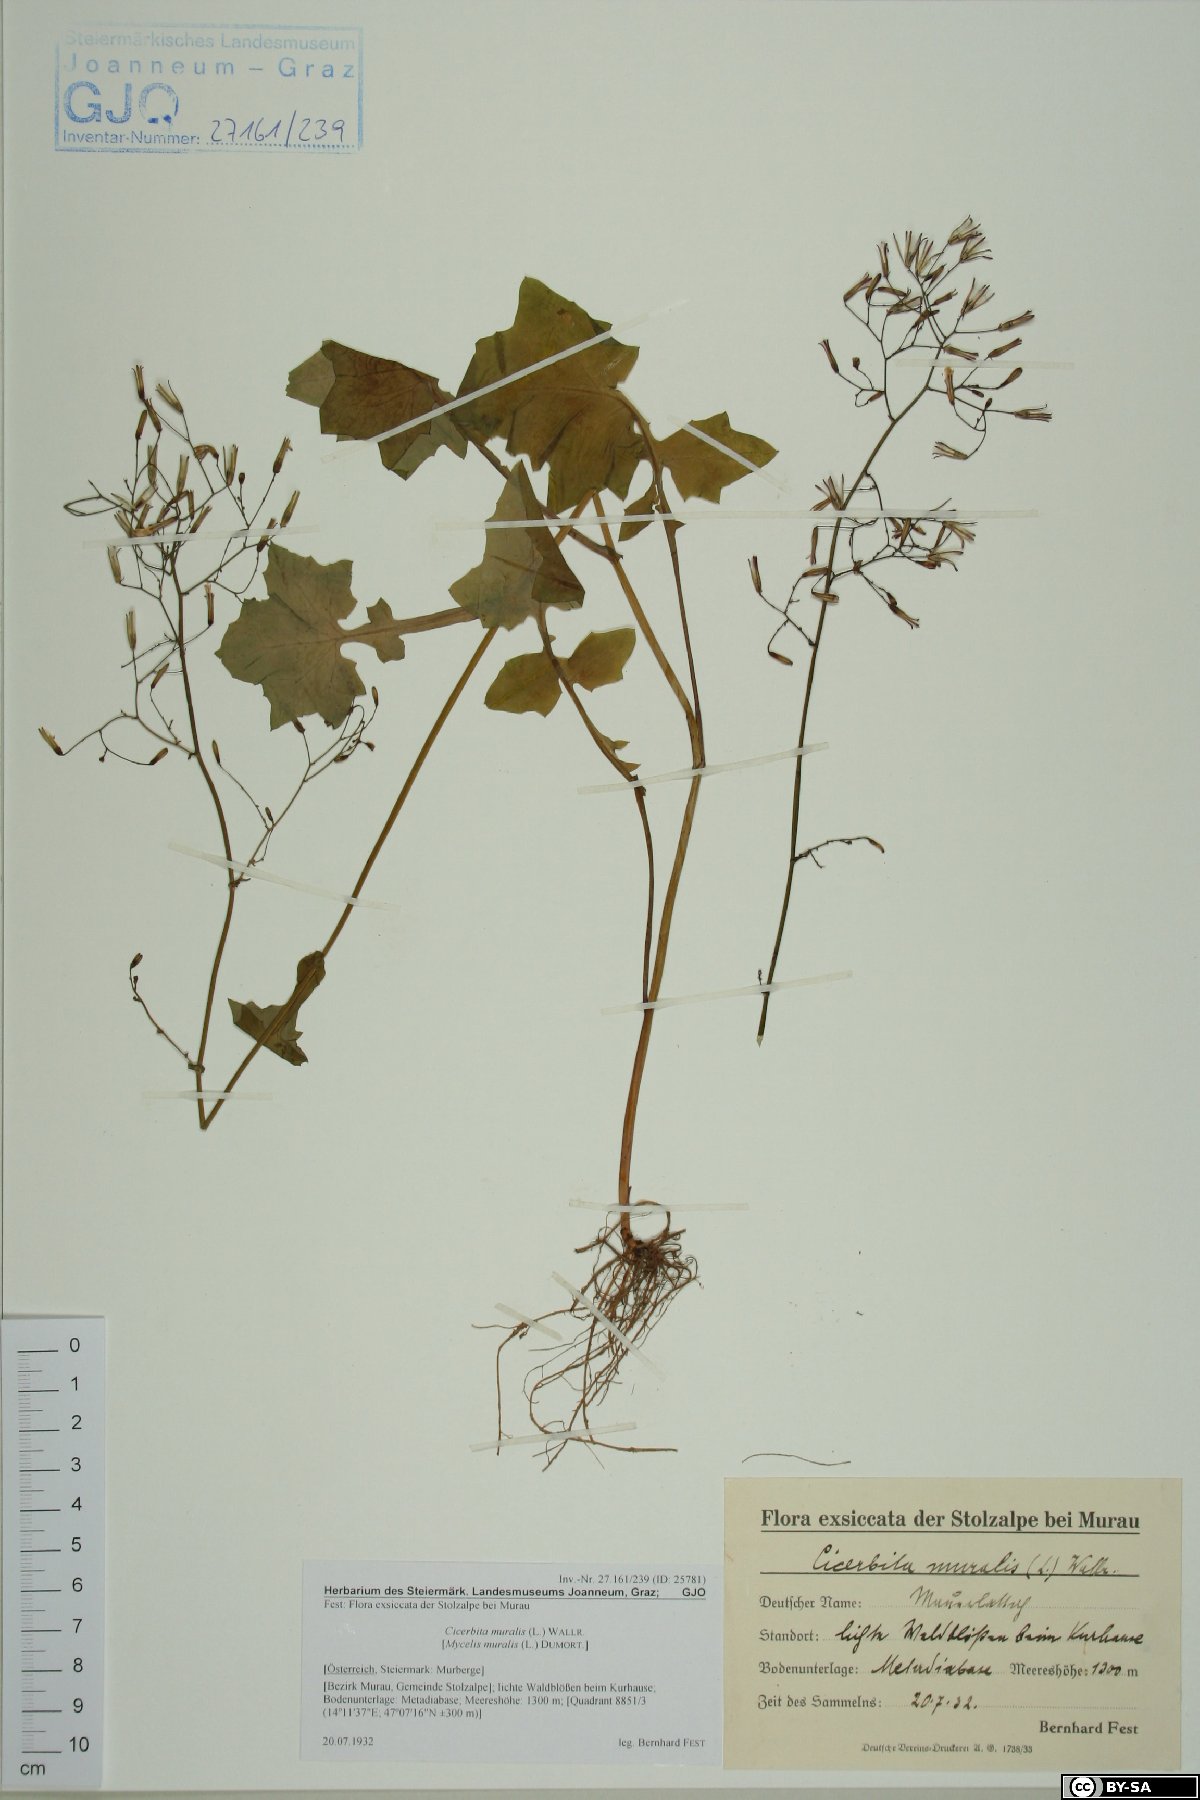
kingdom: Plantae
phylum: Tracheophyta
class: Magnoliopsida
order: Asterales
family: Asteraceae
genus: Mycelis
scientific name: Mycelis muralis
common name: Wall lettuce
